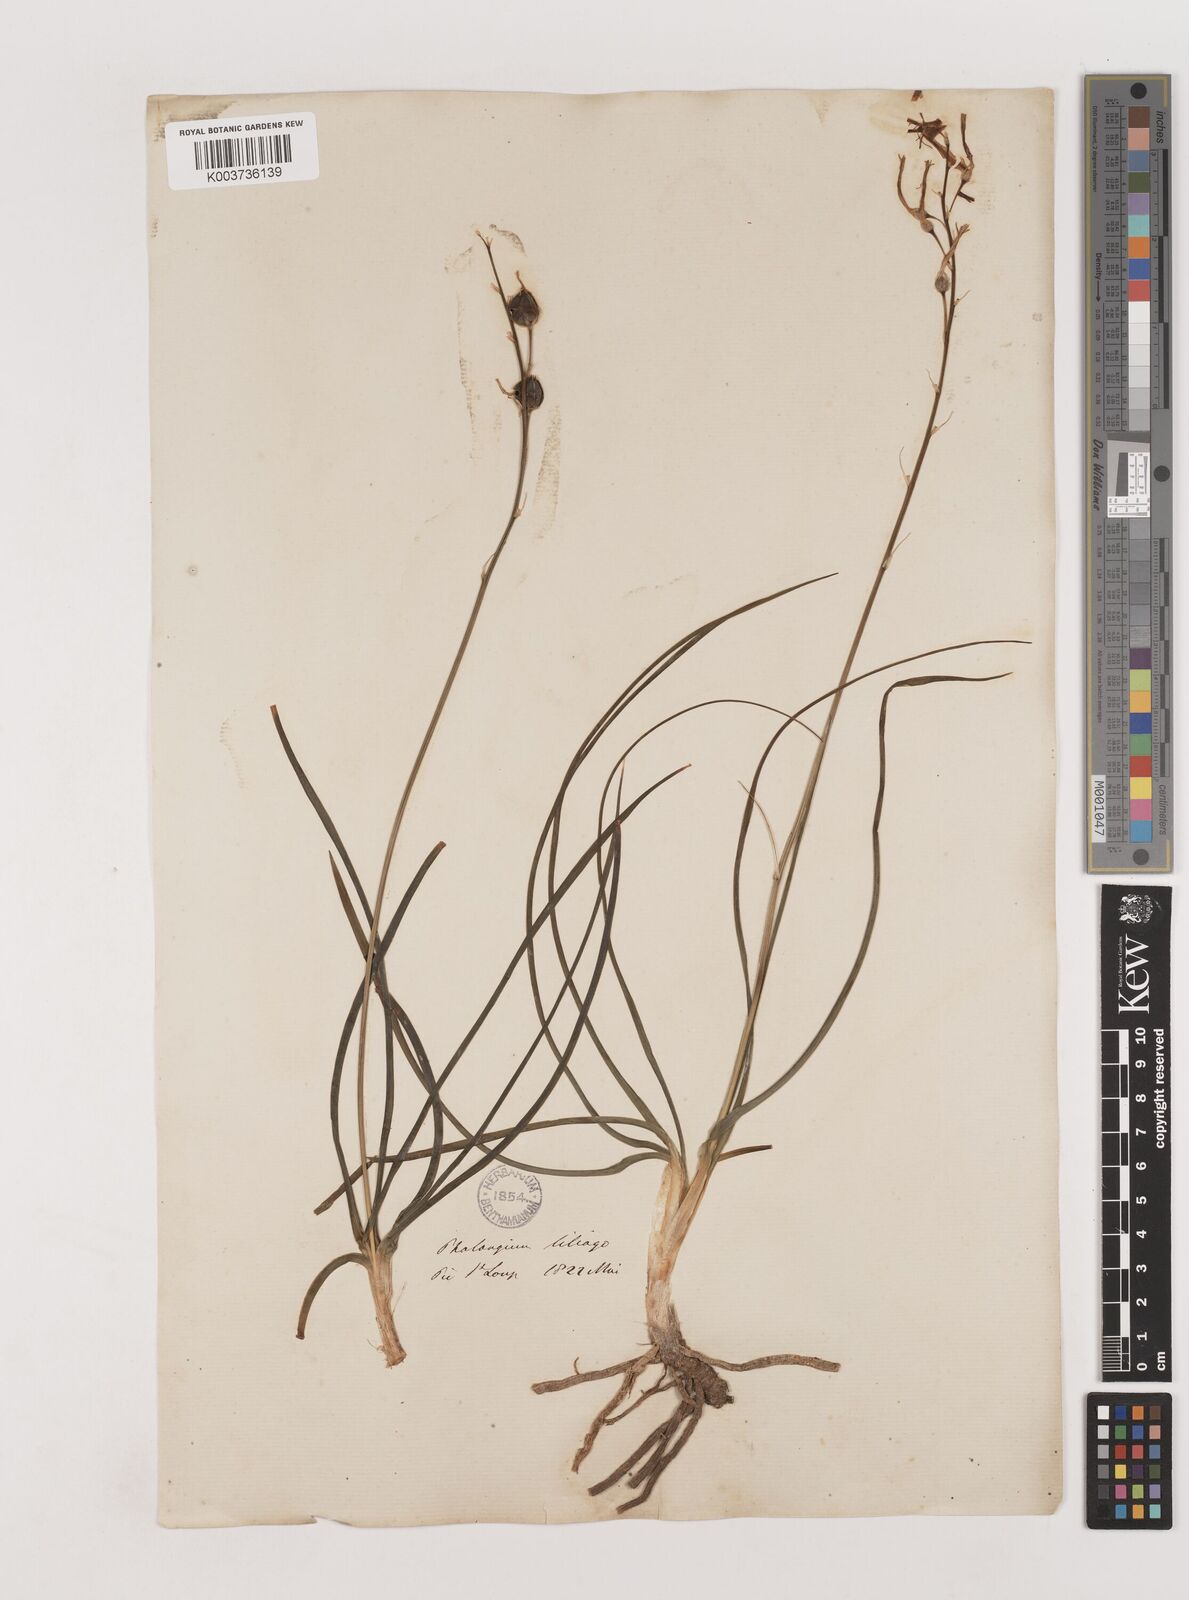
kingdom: Plantae
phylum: Tracheophyta
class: Liliopsida
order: Asparagales
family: Asparagaceae
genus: Anthericum
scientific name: Anthericum liliago
